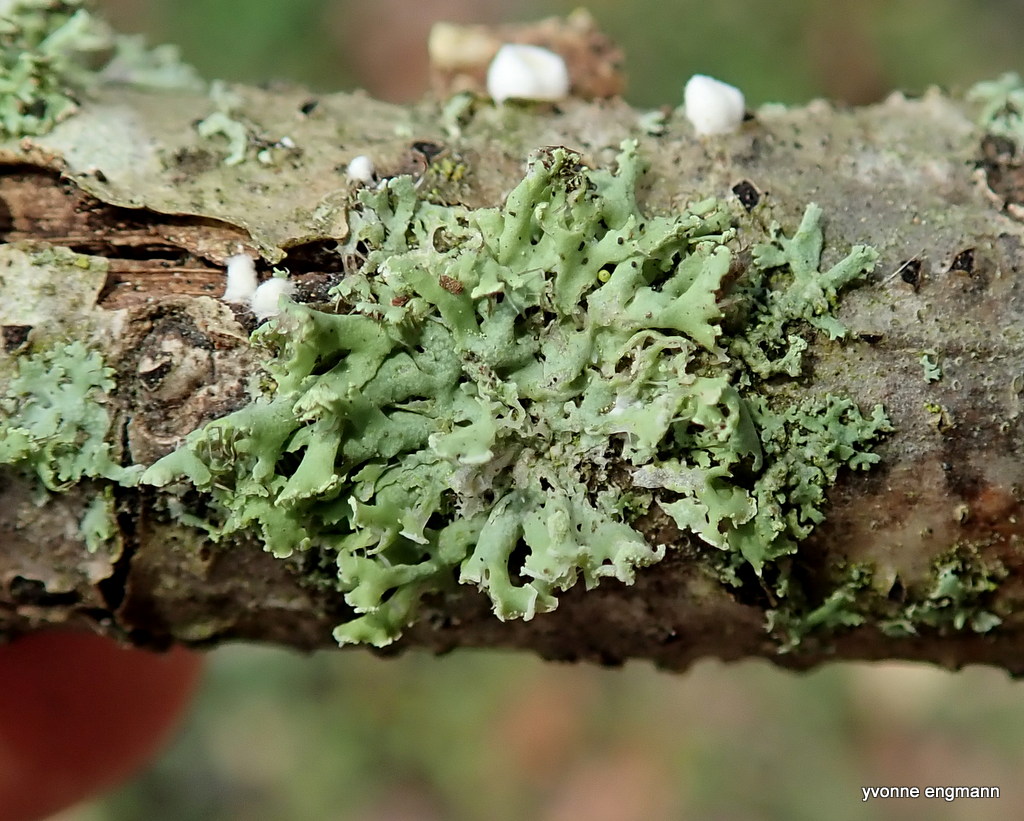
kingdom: Fungi
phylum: Ascomycota
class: Lecanoromycetes
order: Caliciales
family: Physciaceae
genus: Physcia
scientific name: Physcia tenella
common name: spæd rosetlav
